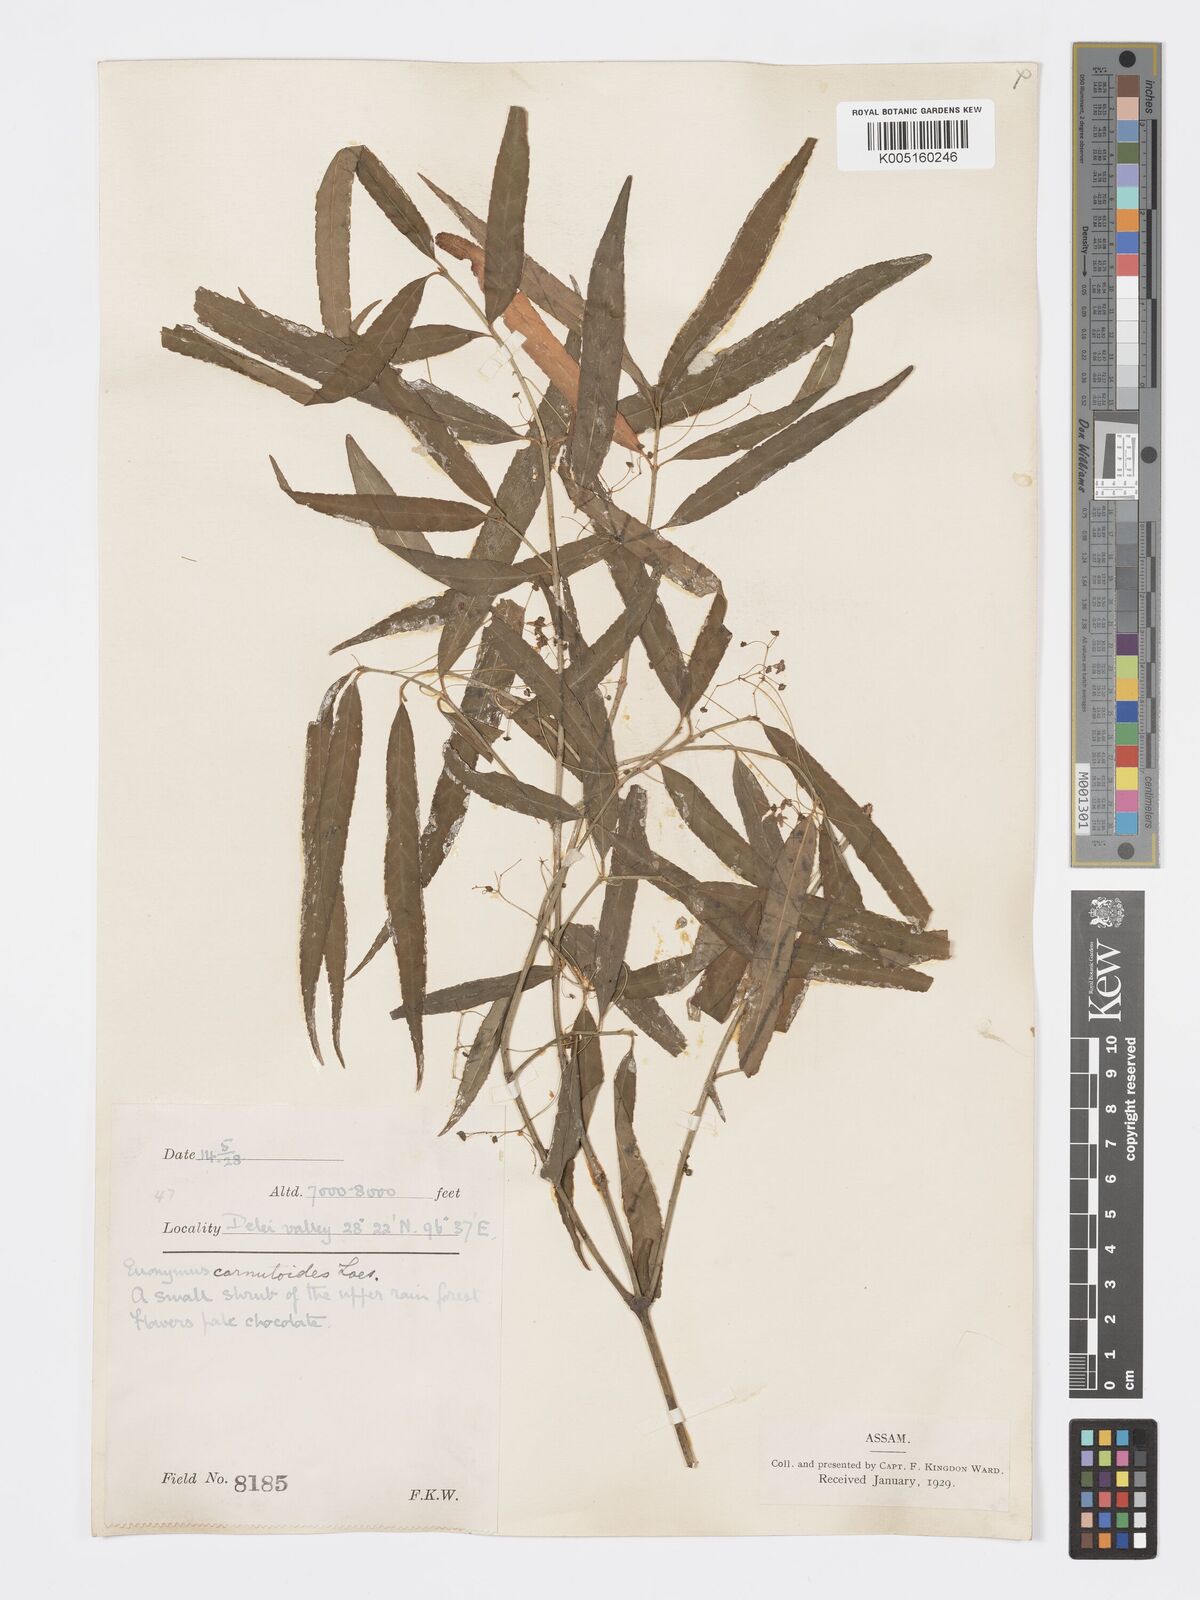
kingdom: Plantae
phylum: Tracheophyta
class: Magnoliopsida
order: Celastrales
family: Celastraceae
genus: Euonymus
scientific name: Euonymus cornutus
